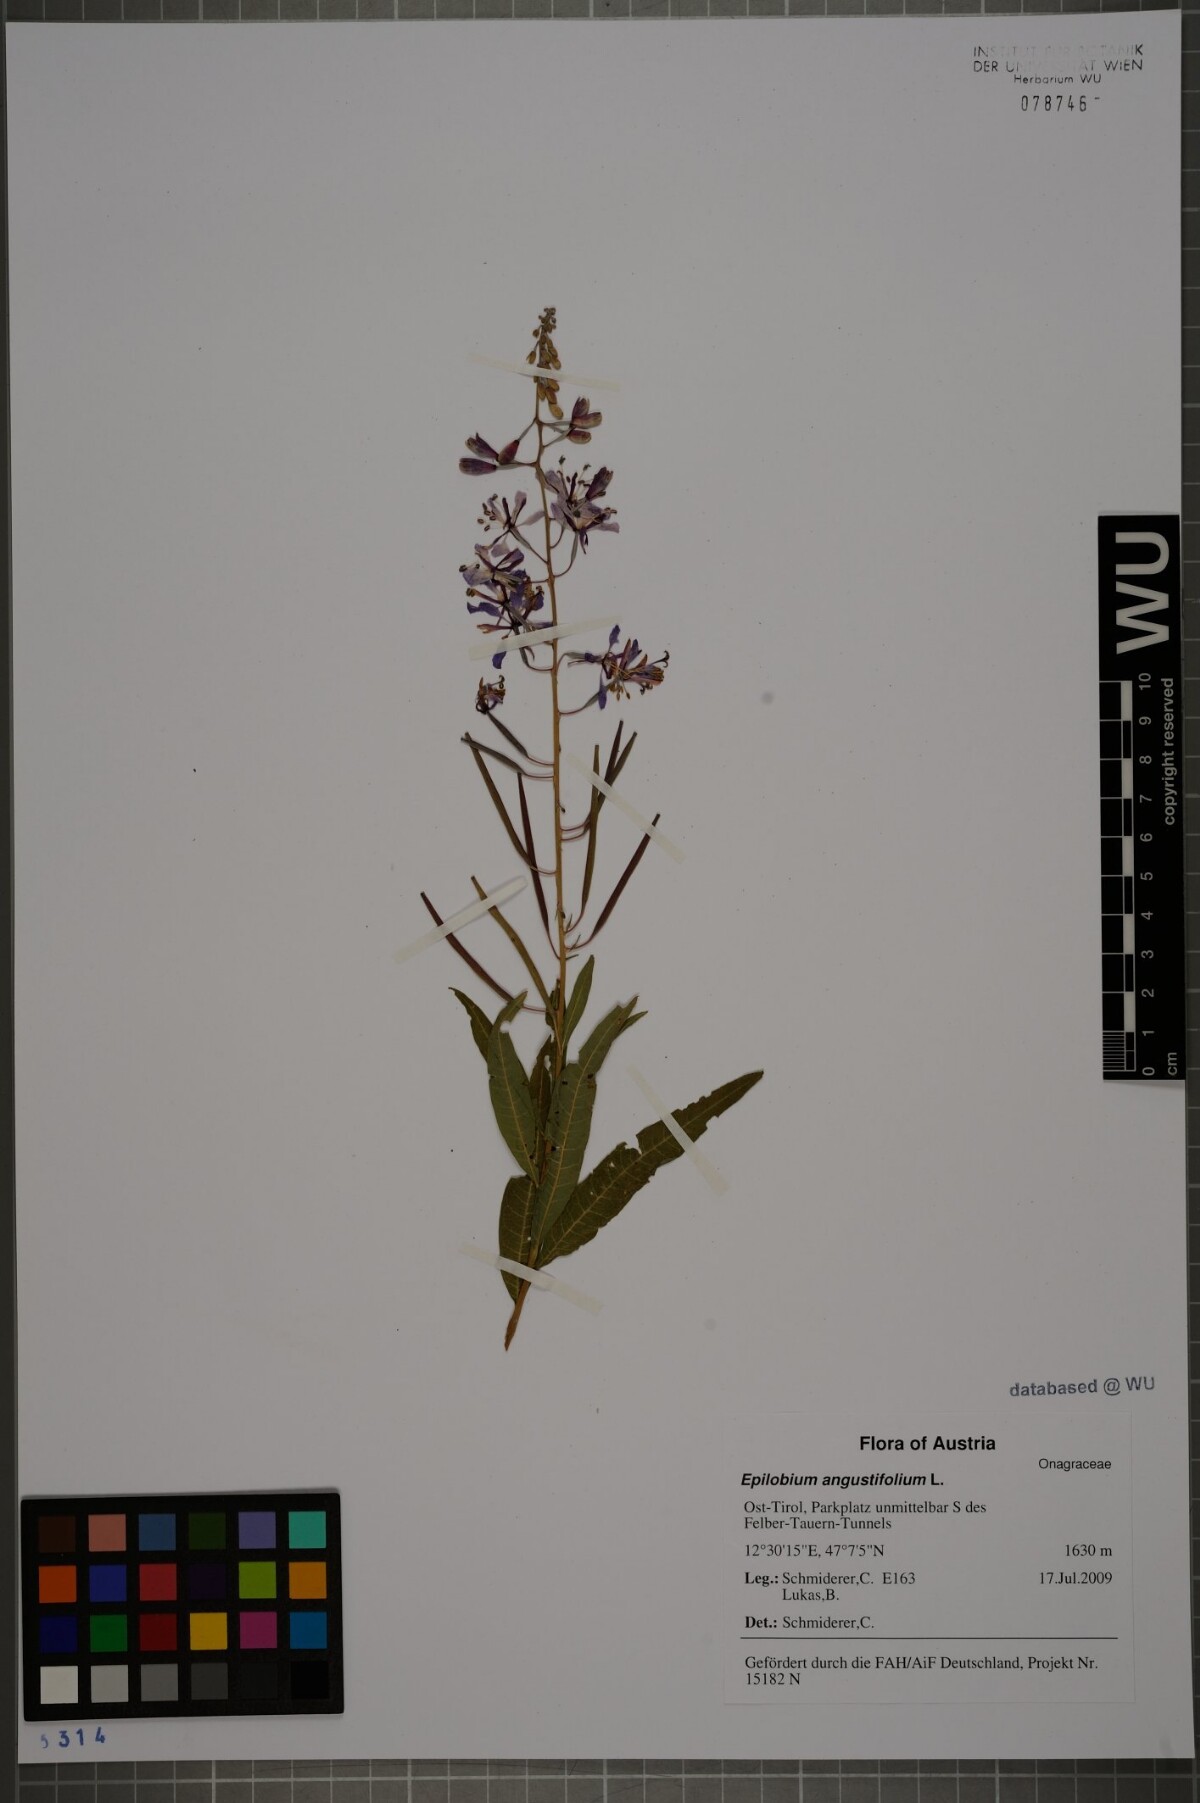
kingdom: Plantae
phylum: Tracheophyta
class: Magnoliopsida
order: Myrtales
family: Onagraceae
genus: Chamaenerion
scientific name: Chamaenerion angustifolium
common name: Fireweed
